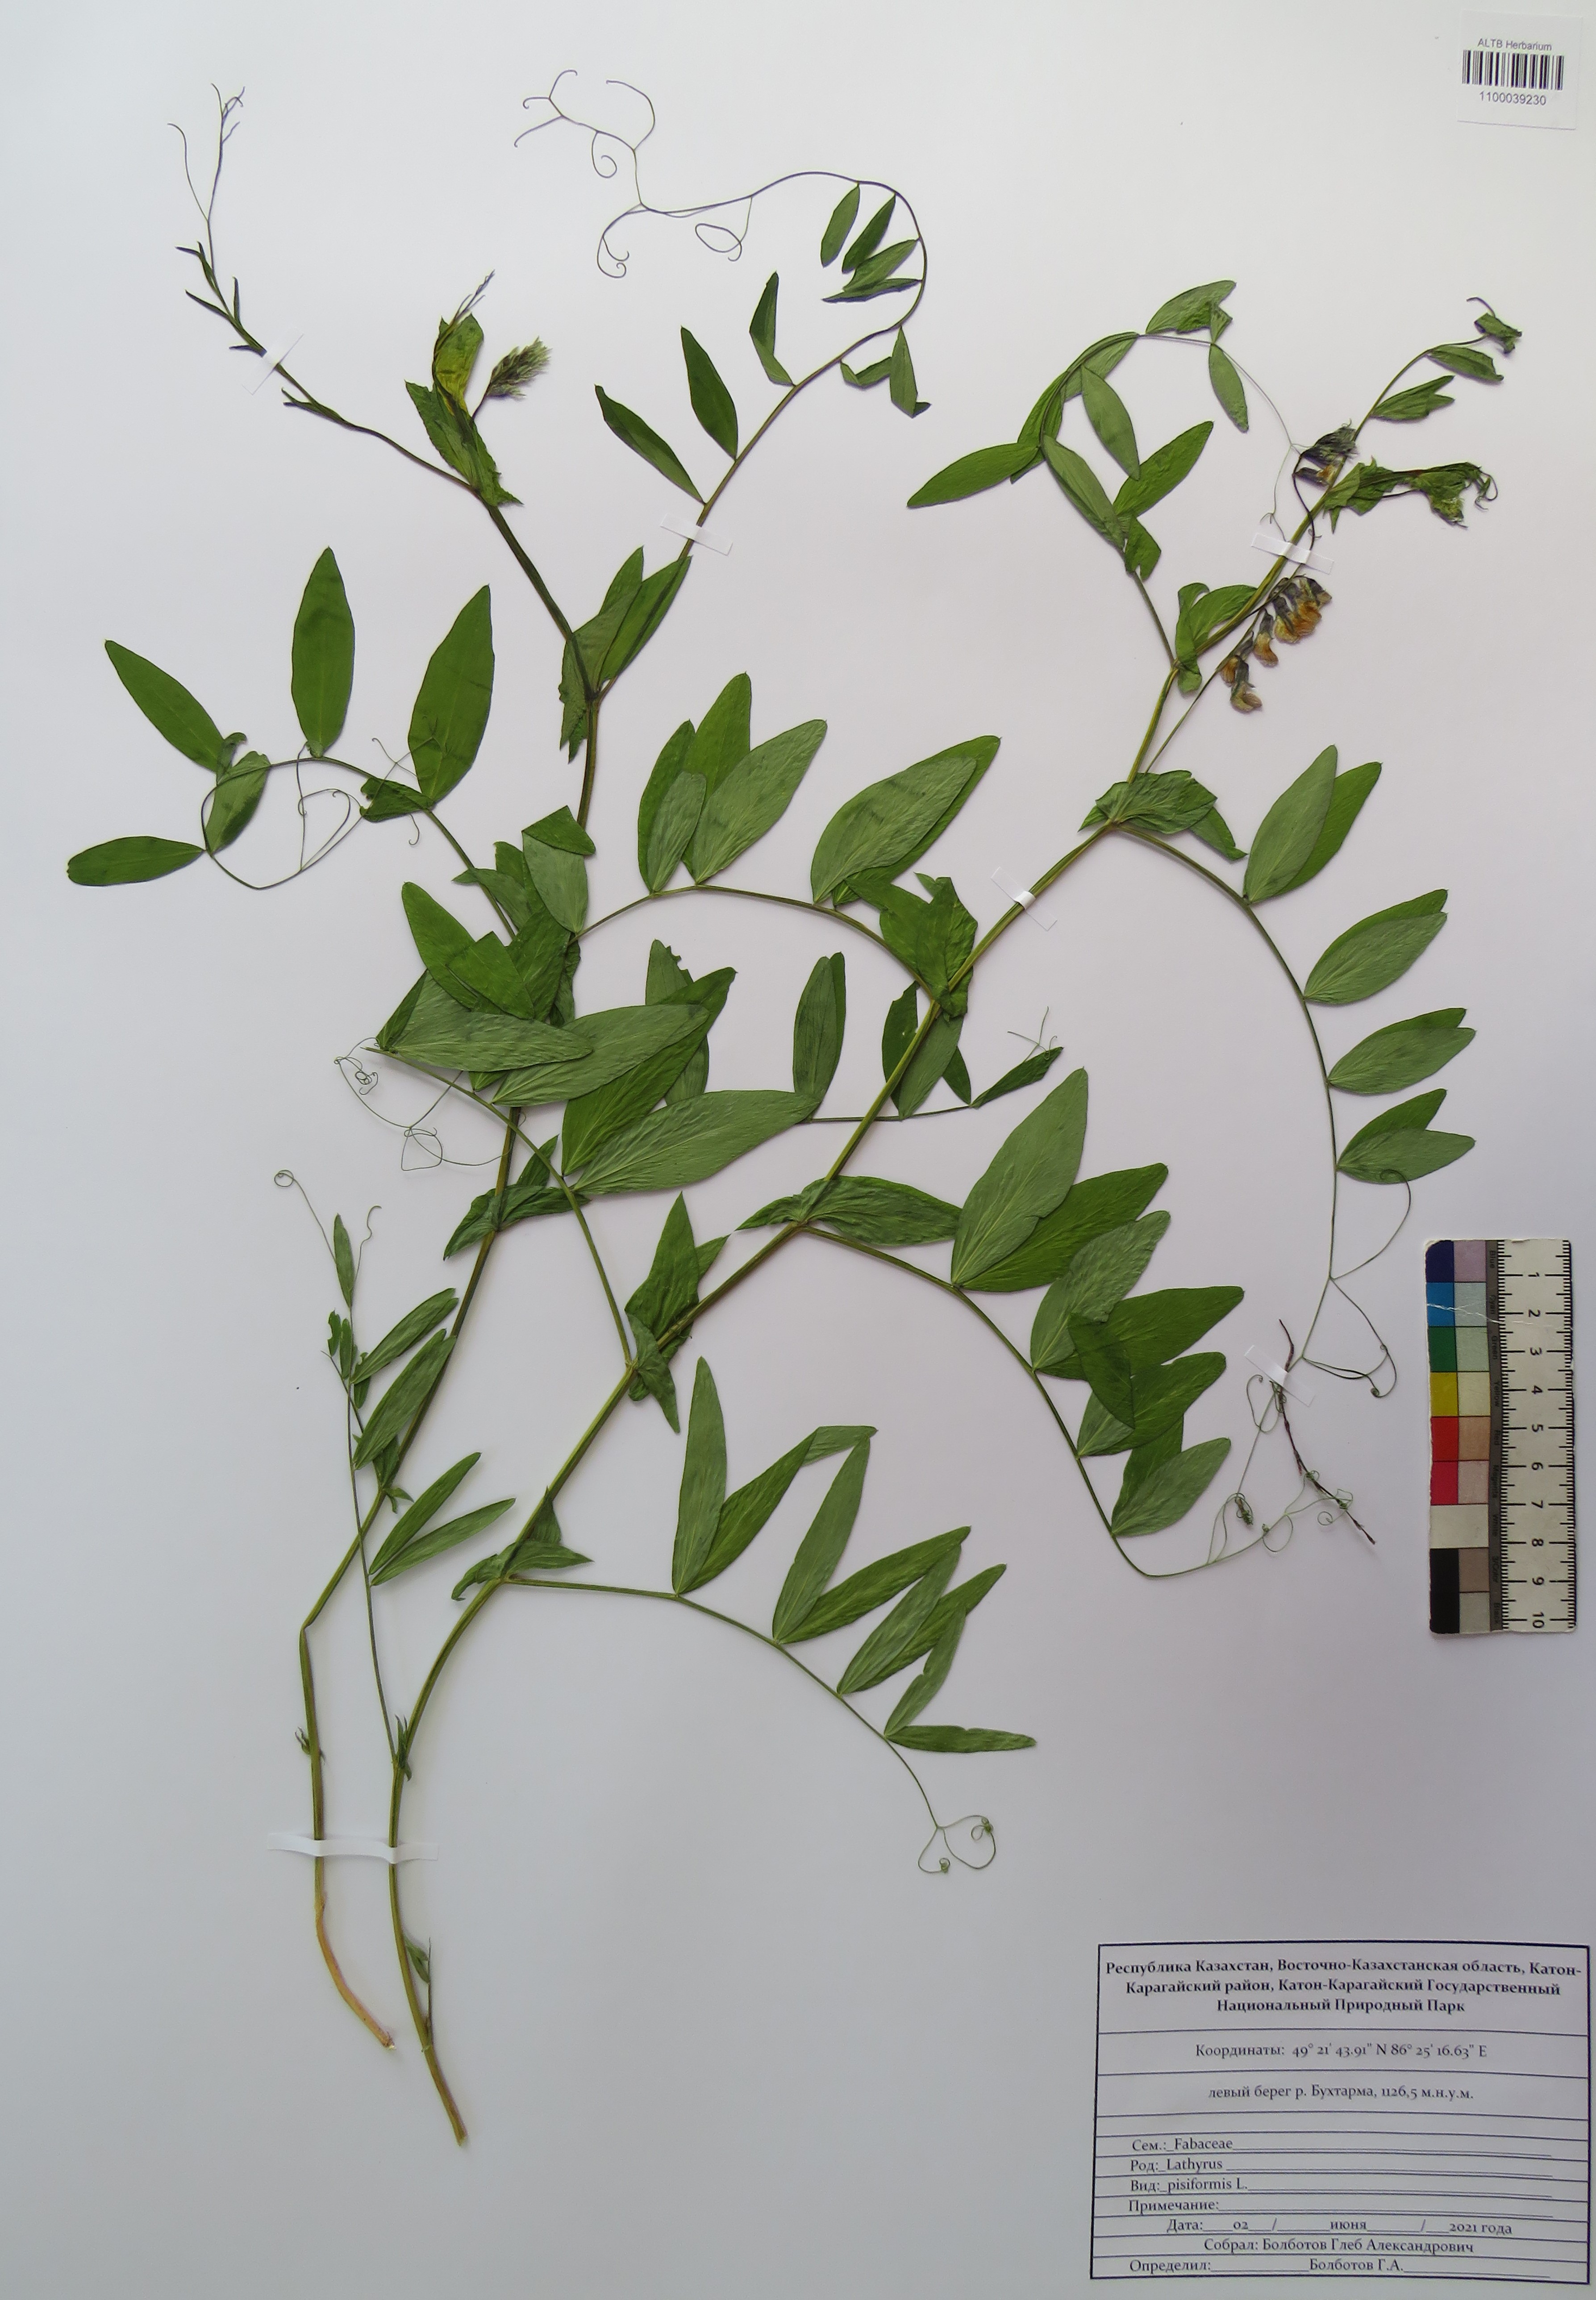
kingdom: Plantae
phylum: Tracheophyta
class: Magnoliopsida
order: Fabales
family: Fabaceae
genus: Lathyrus
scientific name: Lathyrus pisiformis
